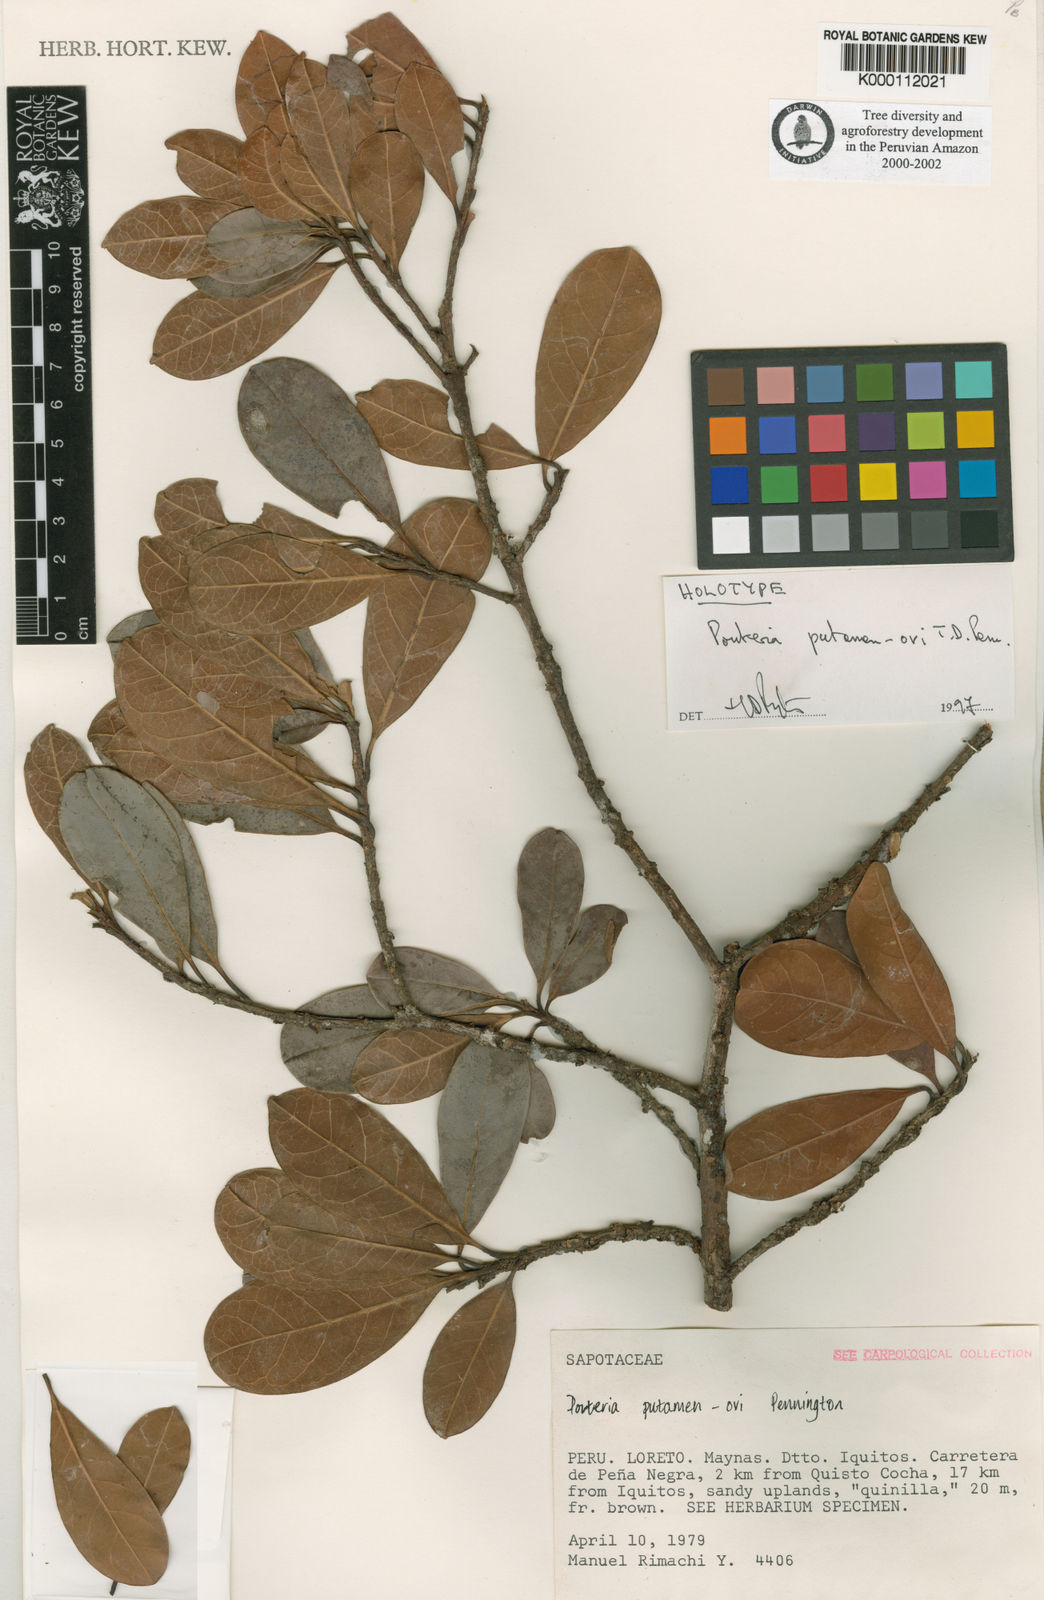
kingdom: Plantae
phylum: Tracheophyta
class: Magnoliopsida
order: Ericales
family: Sapotaceae
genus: Pouteria
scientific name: Pouteria putamen-ovi
